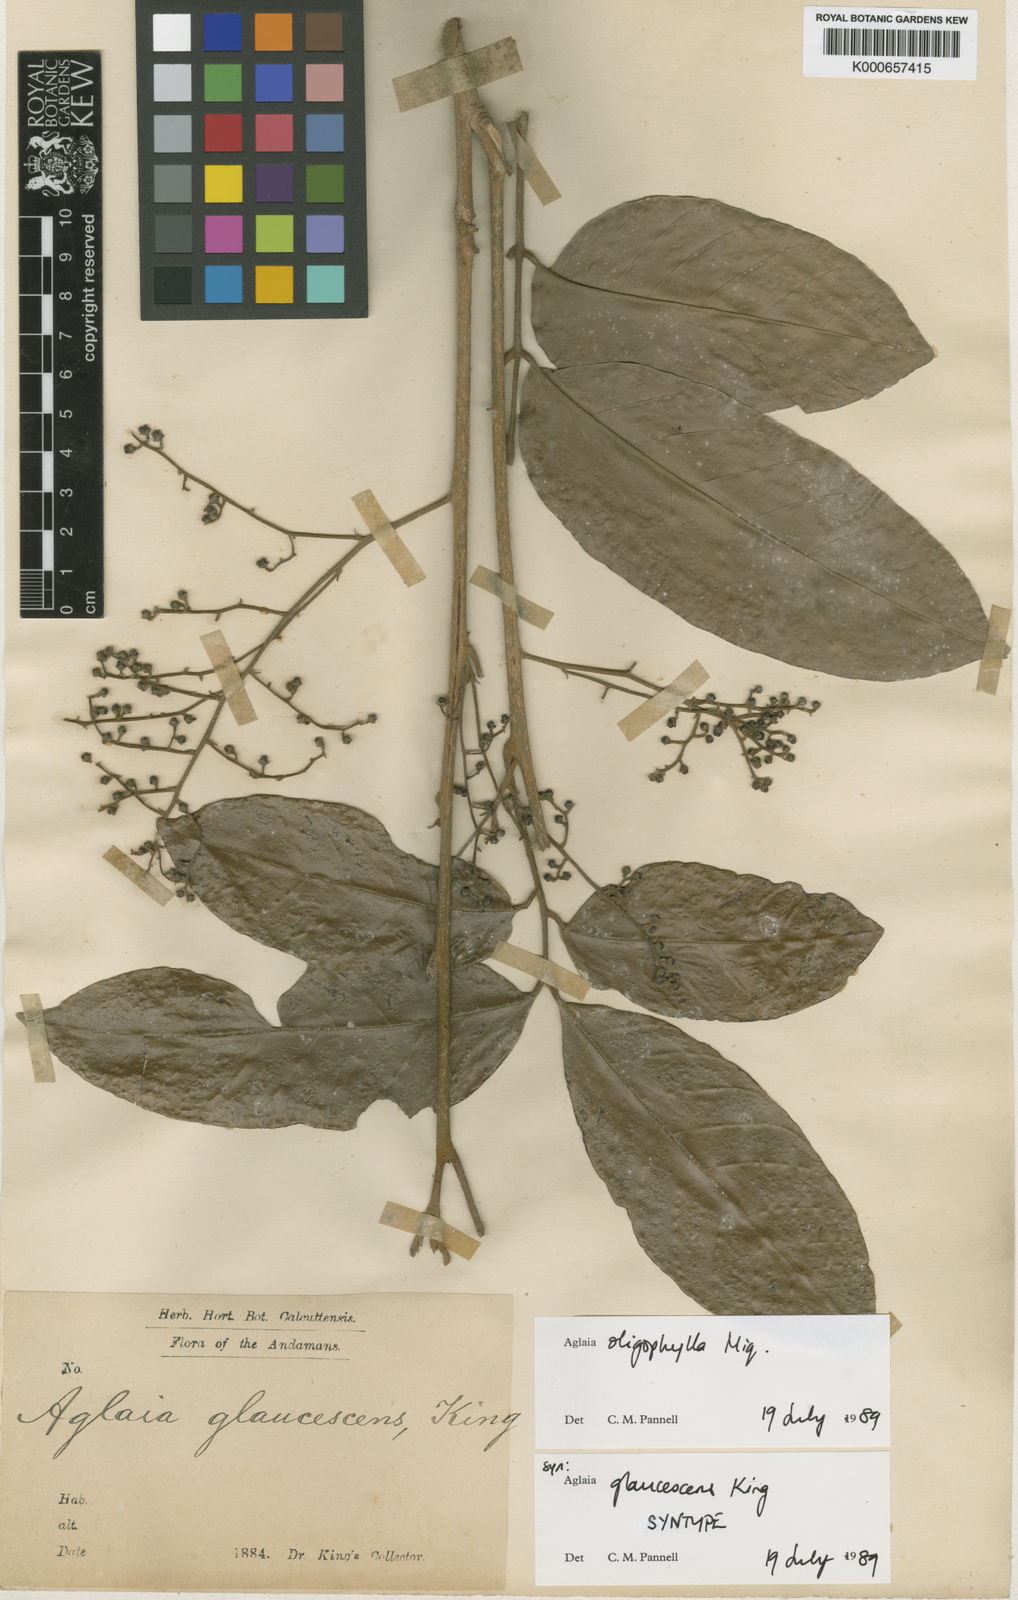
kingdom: Plantae
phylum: Tracheophyta
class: Magnoliopsida
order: Sapindales
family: Meliaceae
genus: Aglaia
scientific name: Aglaia oligophylla
